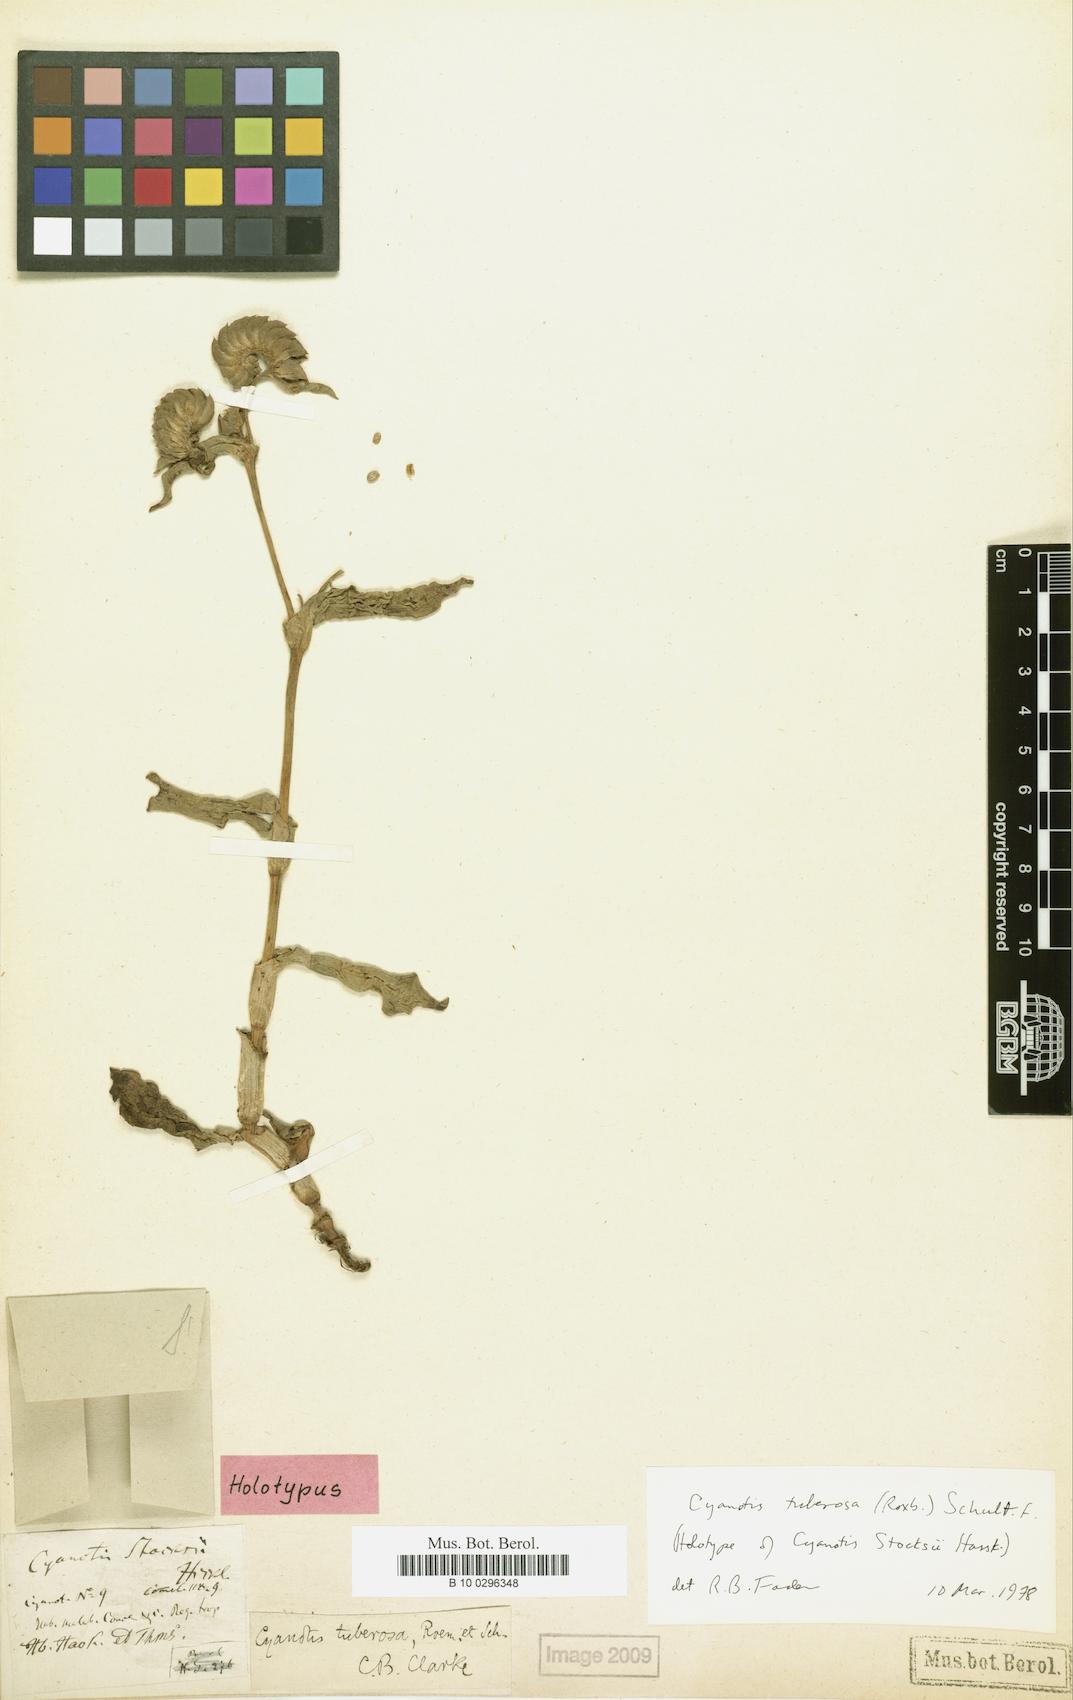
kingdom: Plantae
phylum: Tracheophyta
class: Liliopsida
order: Commelinales
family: Commelinaceae
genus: Cyanotis
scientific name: Cyanotis tuberosa
